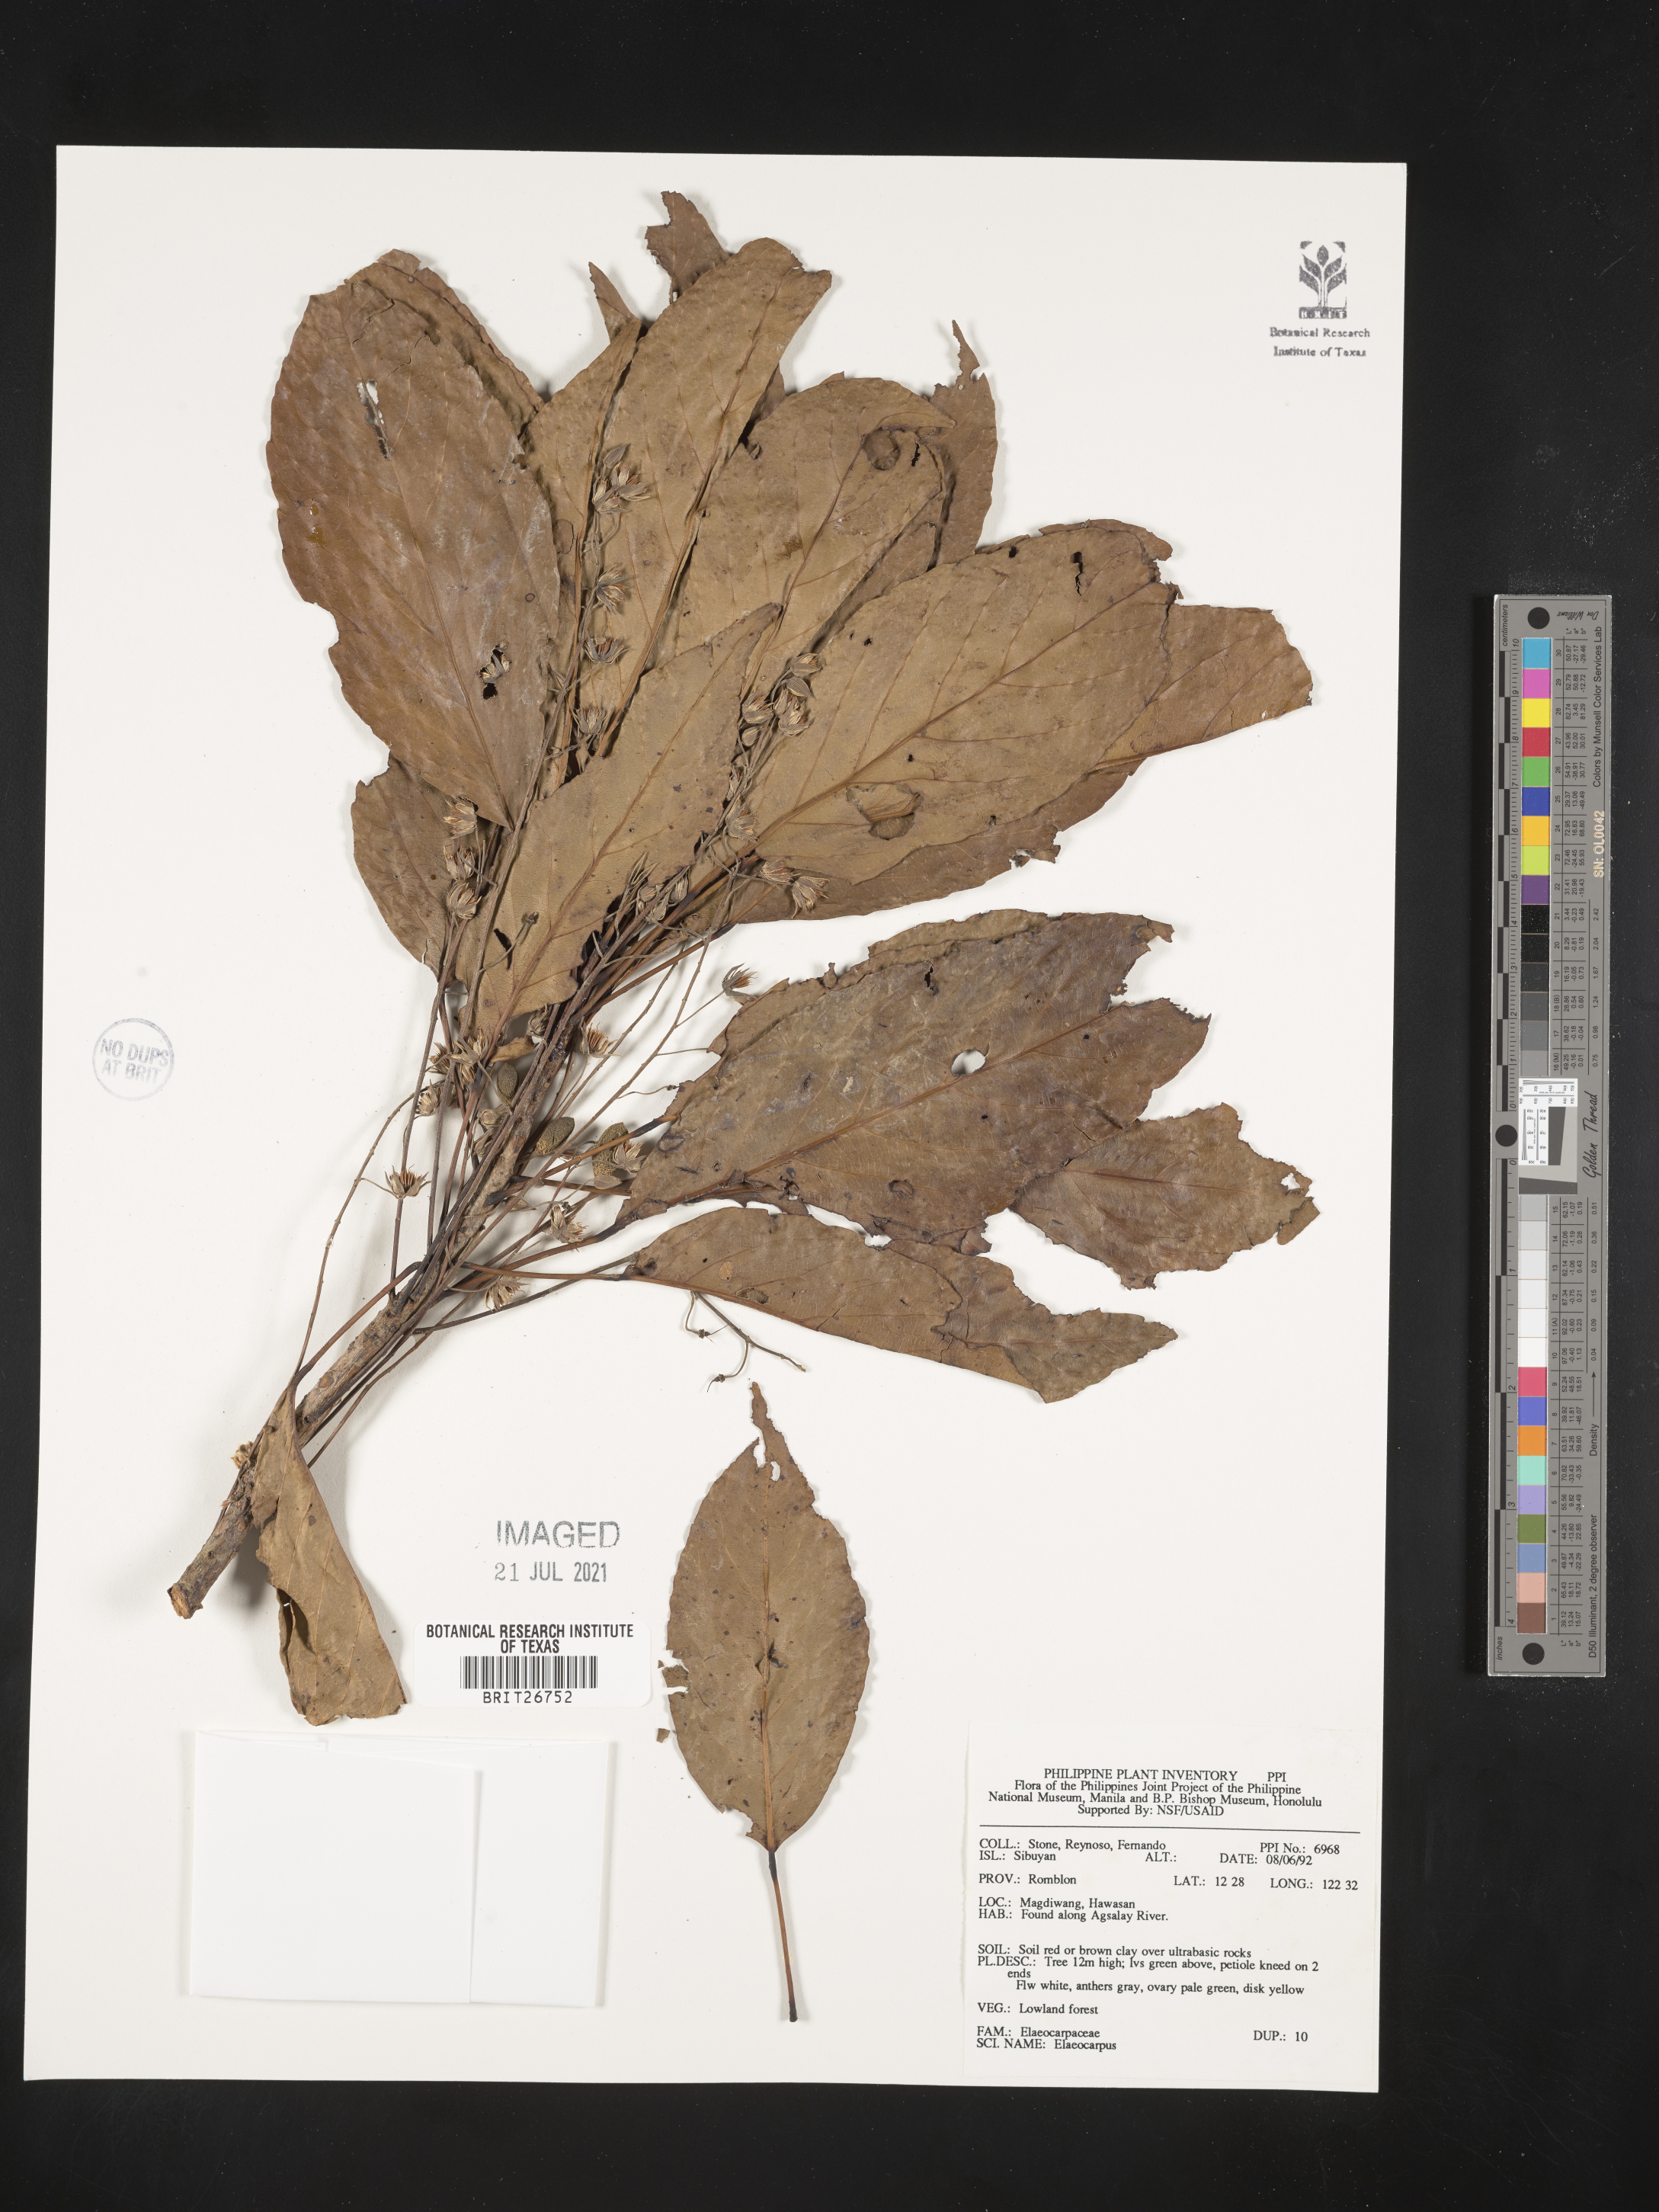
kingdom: Plantae
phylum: Tracheophyta
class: Magnoliopsida
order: Oxalidales
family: Elaeocarpaceae
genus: Elaeocarpus
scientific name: Elaeocarpus
